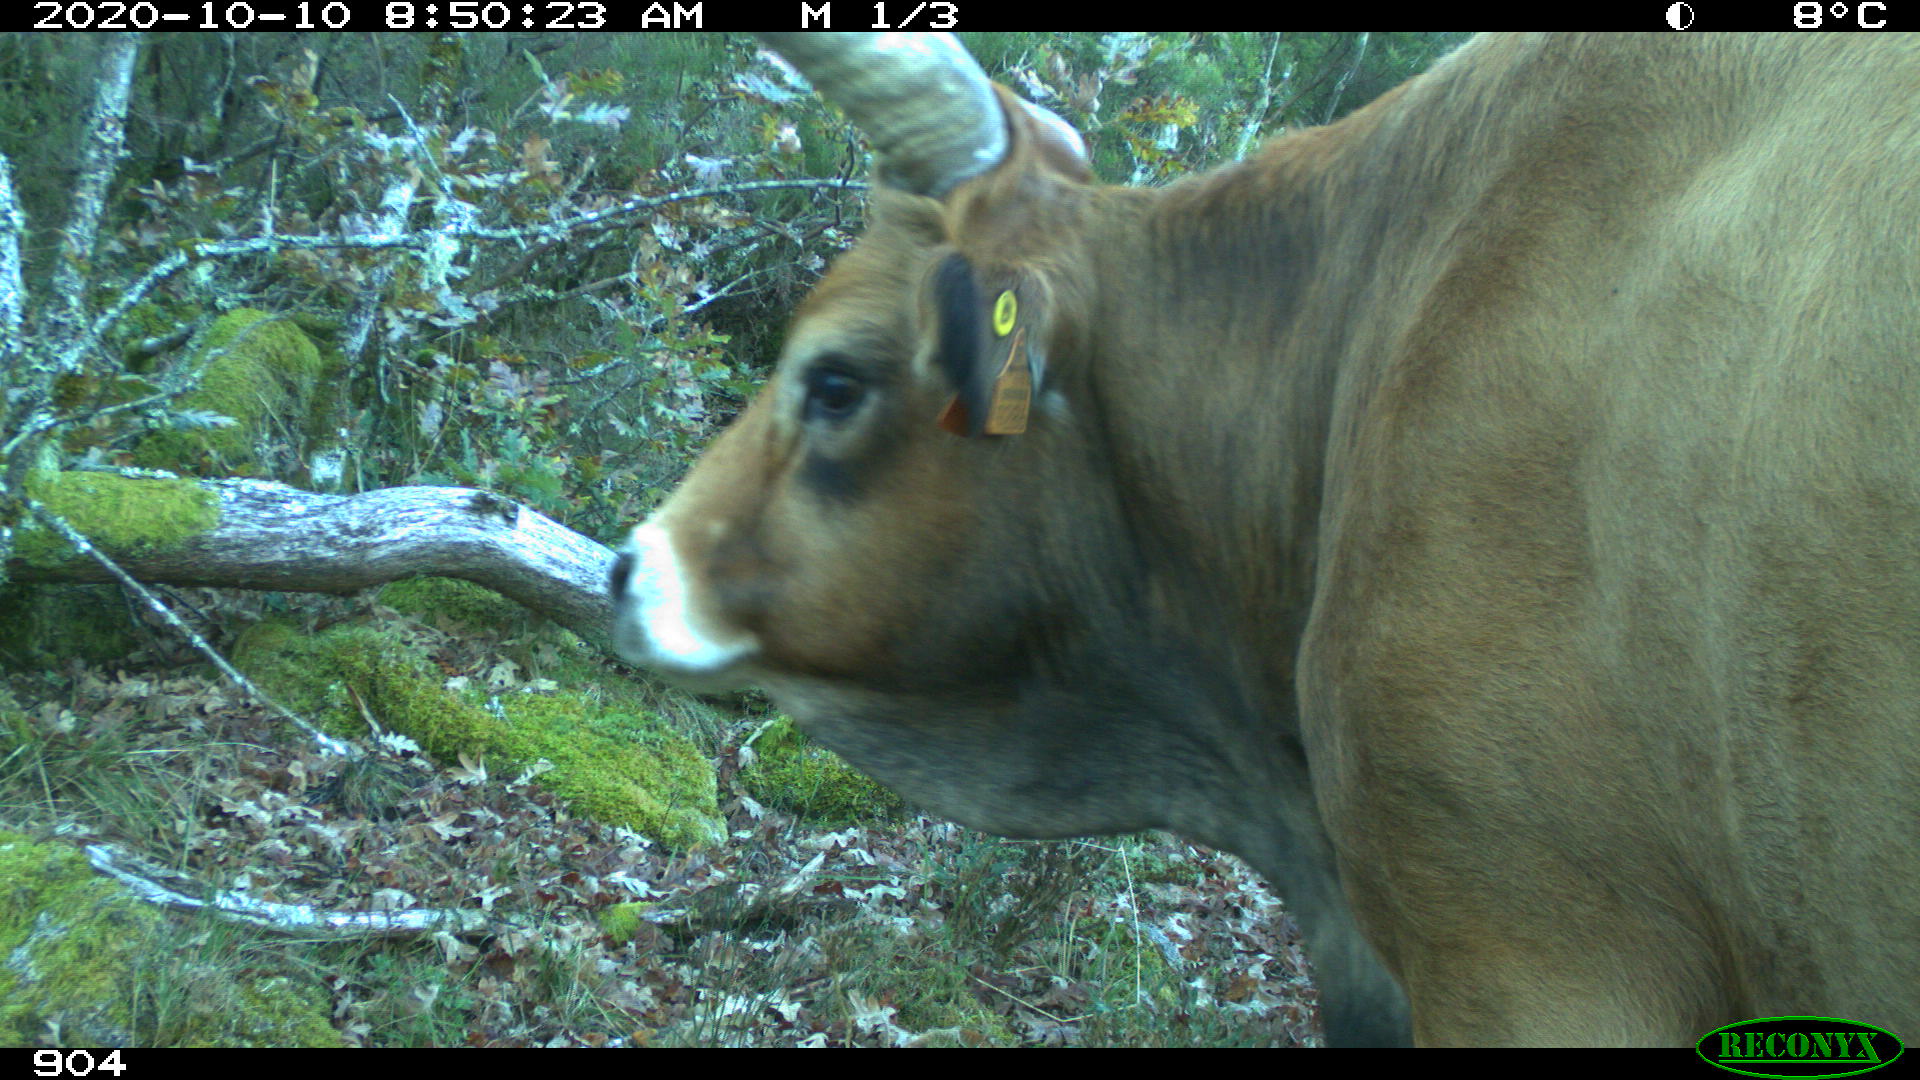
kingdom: Animalia
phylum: Chordata
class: Mammalia
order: Artiodactyla
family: Bovidae
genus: Bos
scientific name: Bos taurus
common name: Domesticated cattle
